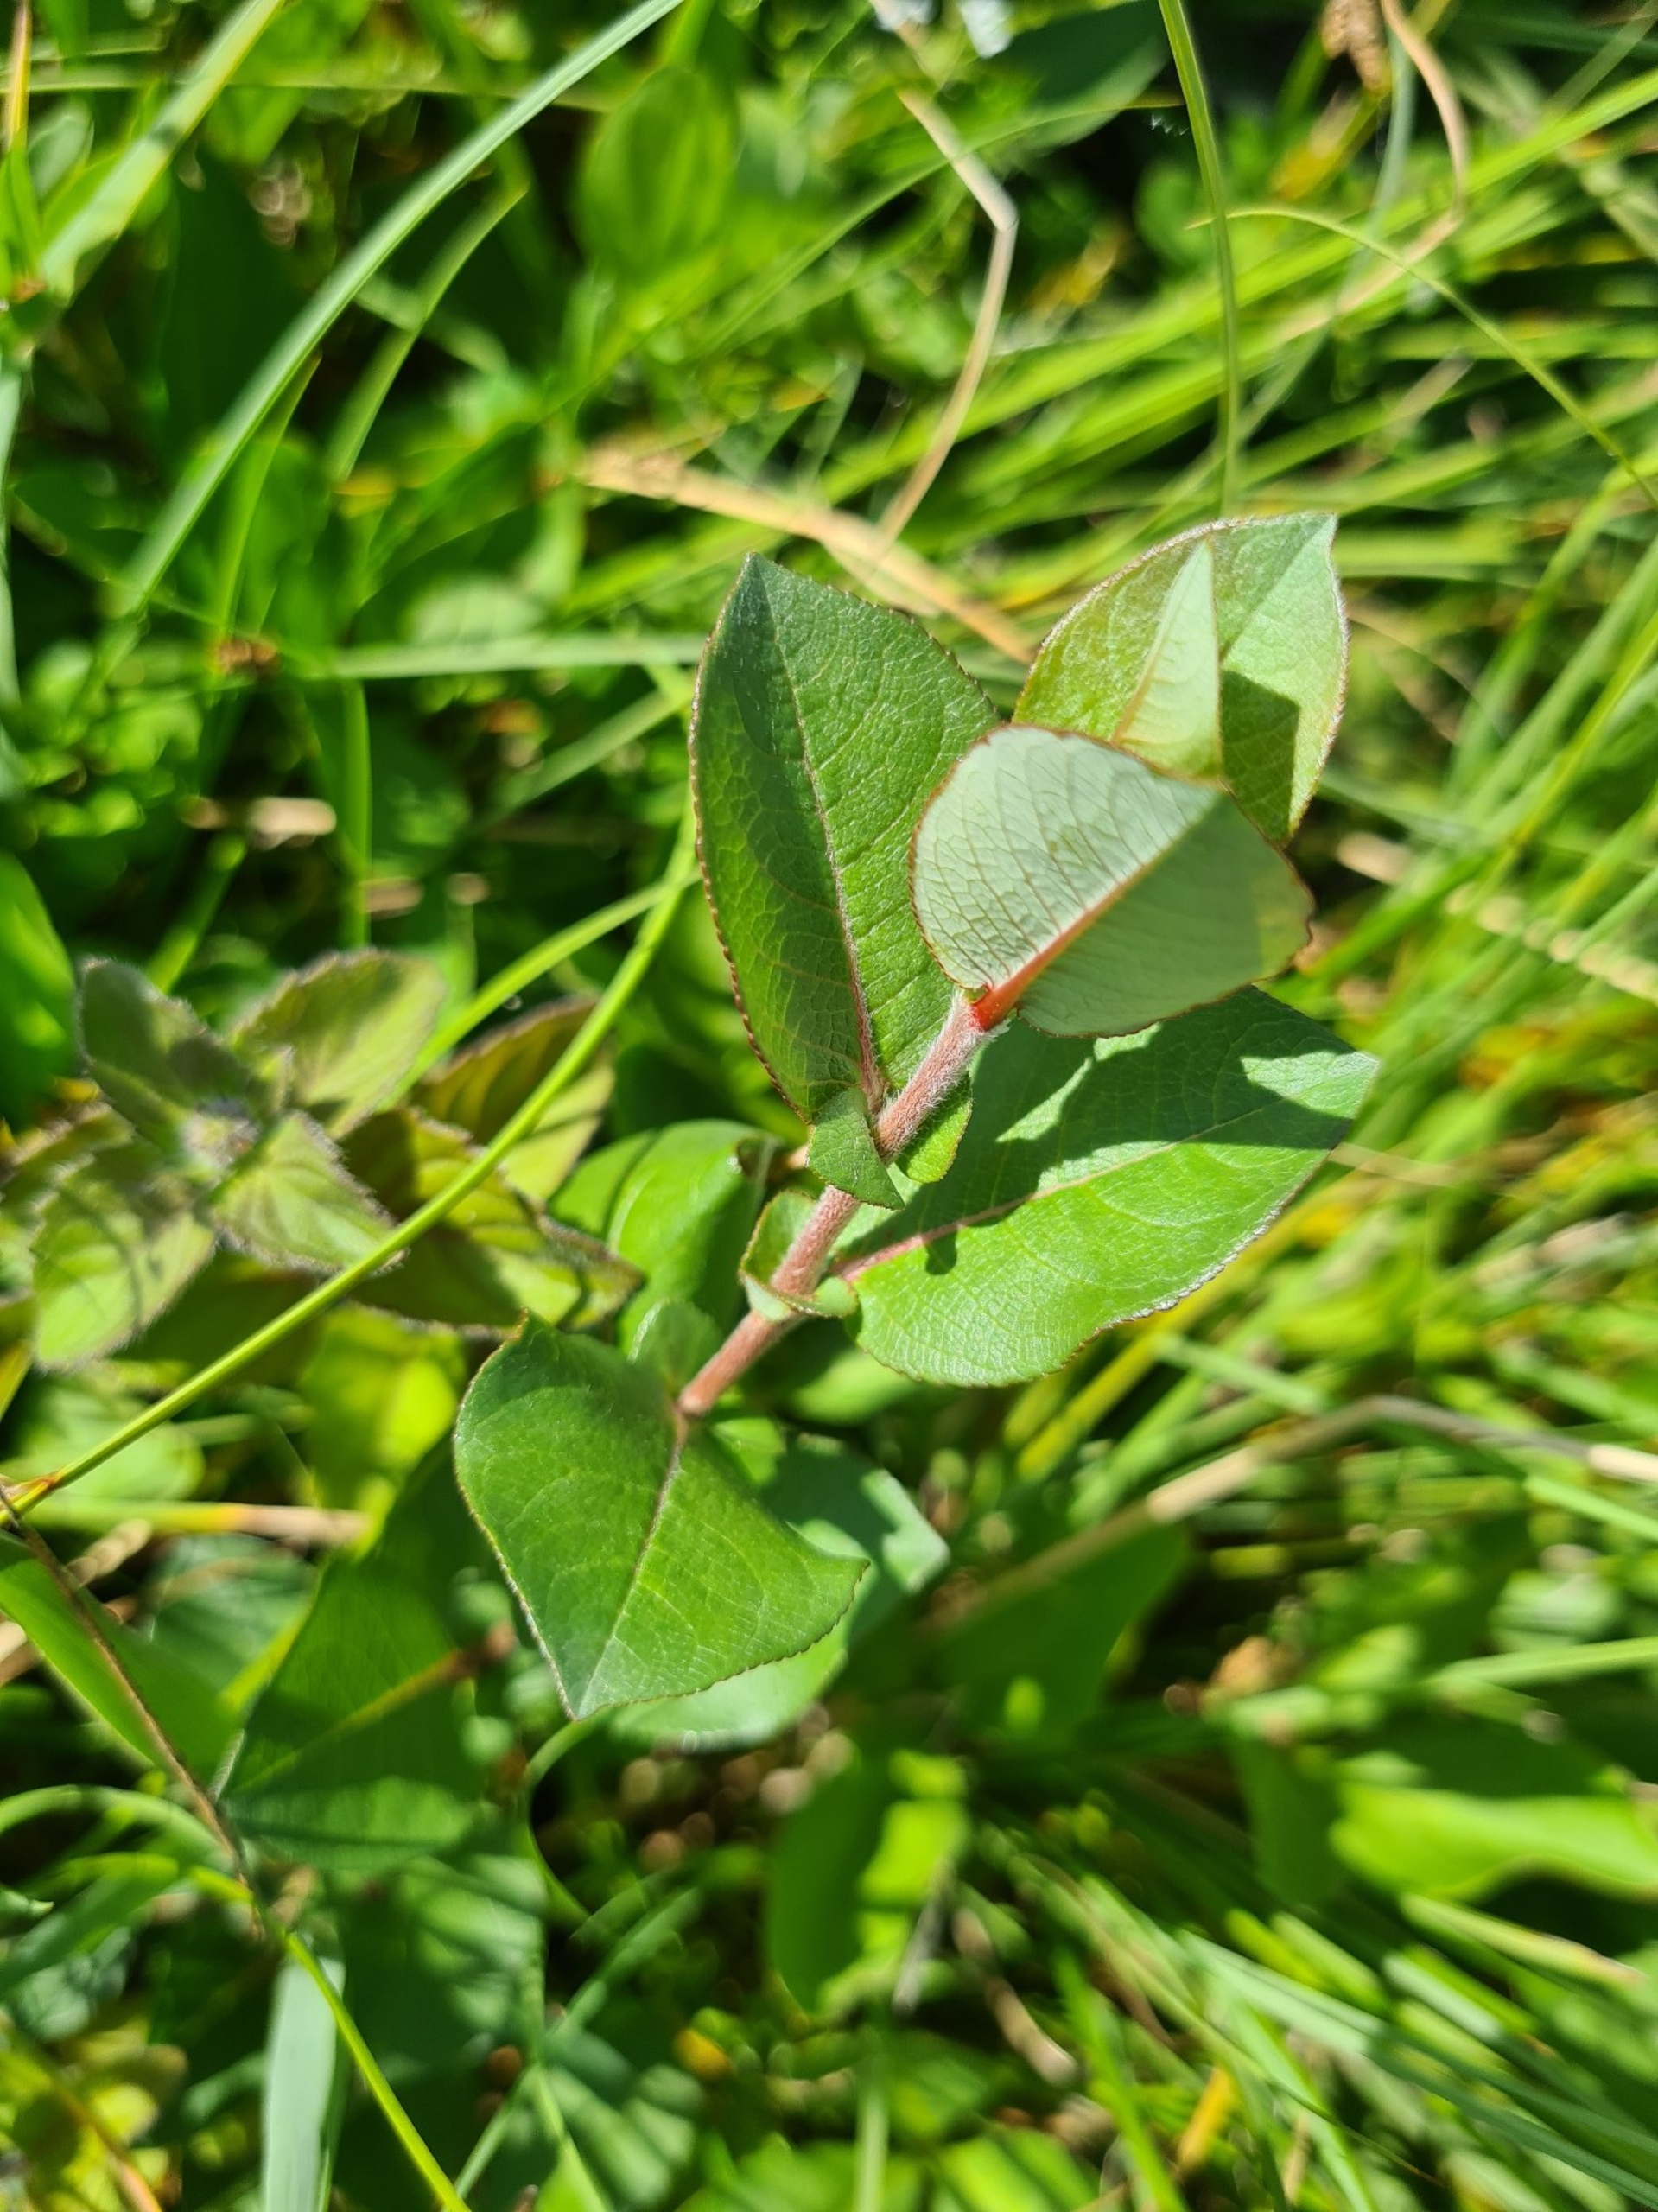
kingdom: Plantae
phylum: Tracheophyta
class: Magnoliopsida
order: Malpighiales
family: Salicaceae
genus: Salix
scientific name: Salix hastata
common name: Spyd-pil
